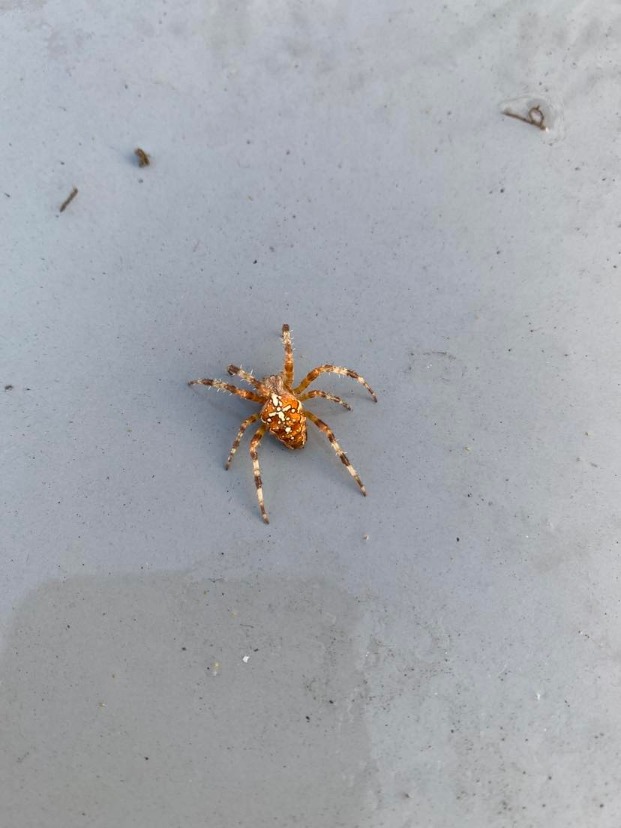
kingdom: Animalia
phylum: Arthropoda
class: Arachnida
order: Araneae
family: Araneidae
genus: Araneus
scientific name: Araneus diadematus
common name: Korsedderkop
